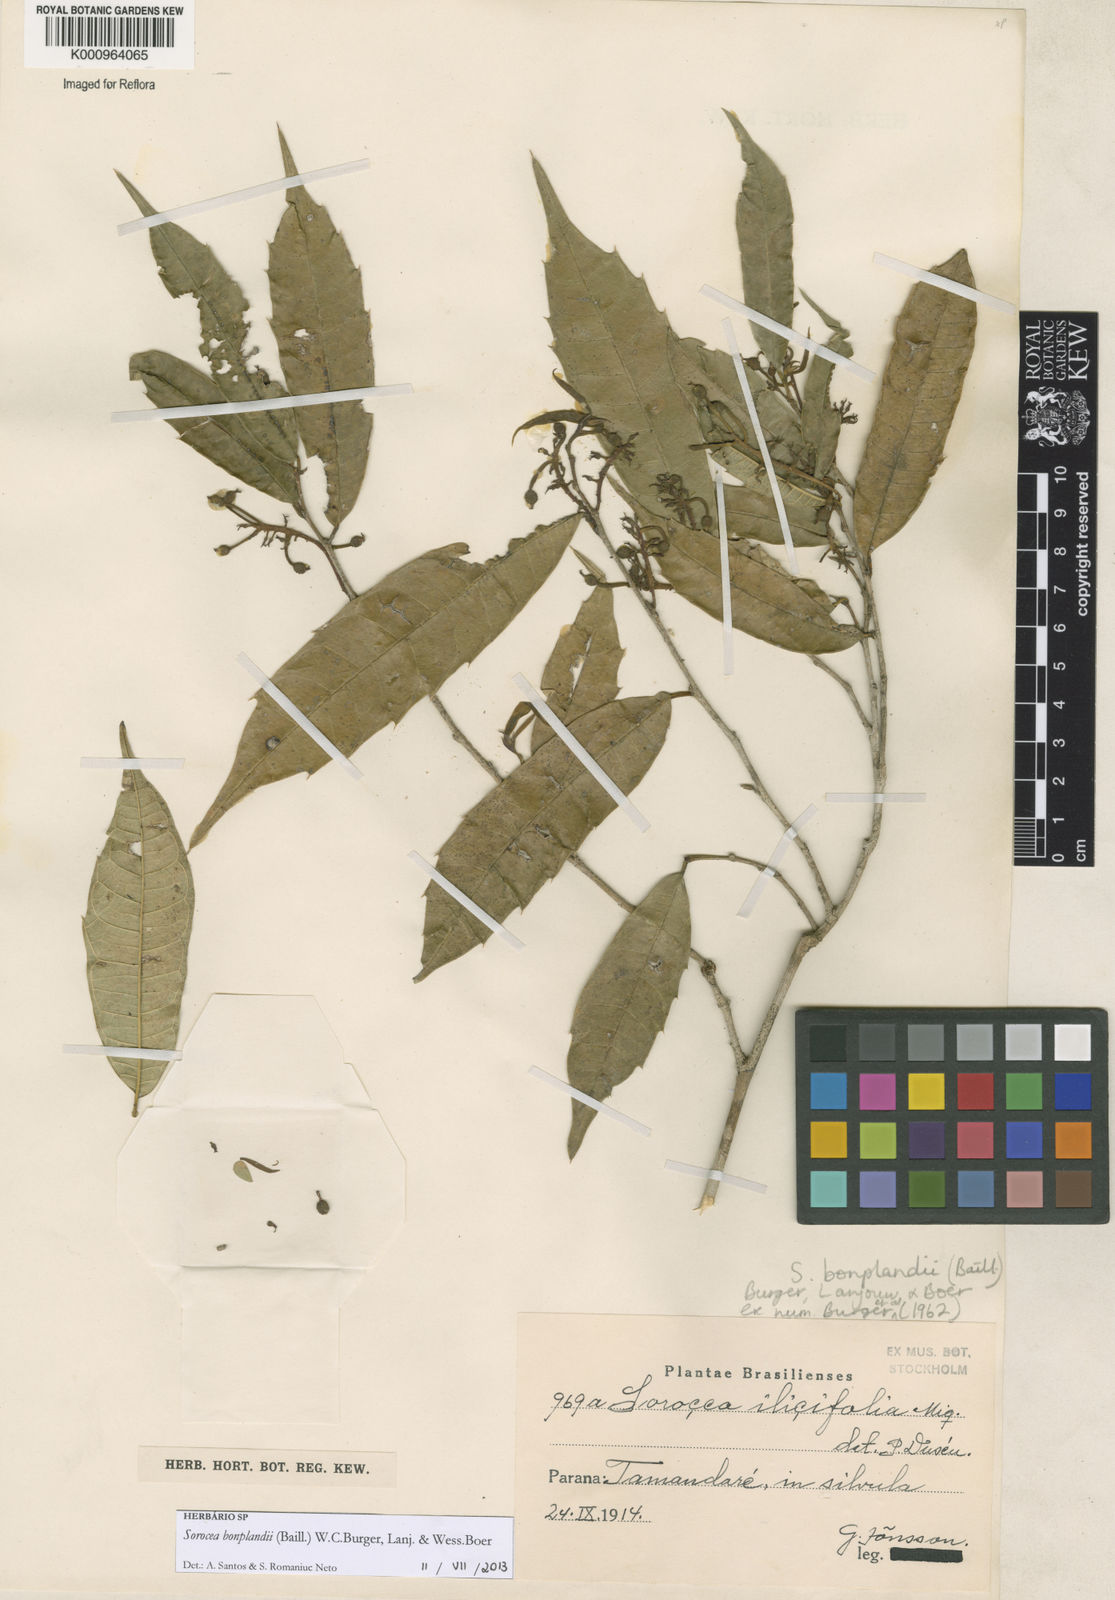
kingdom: Plantae
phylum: Tracheophyta
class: Magnoliopsida
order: Rosales
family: Moraceae
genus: Sorocea
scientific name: Sorocea
